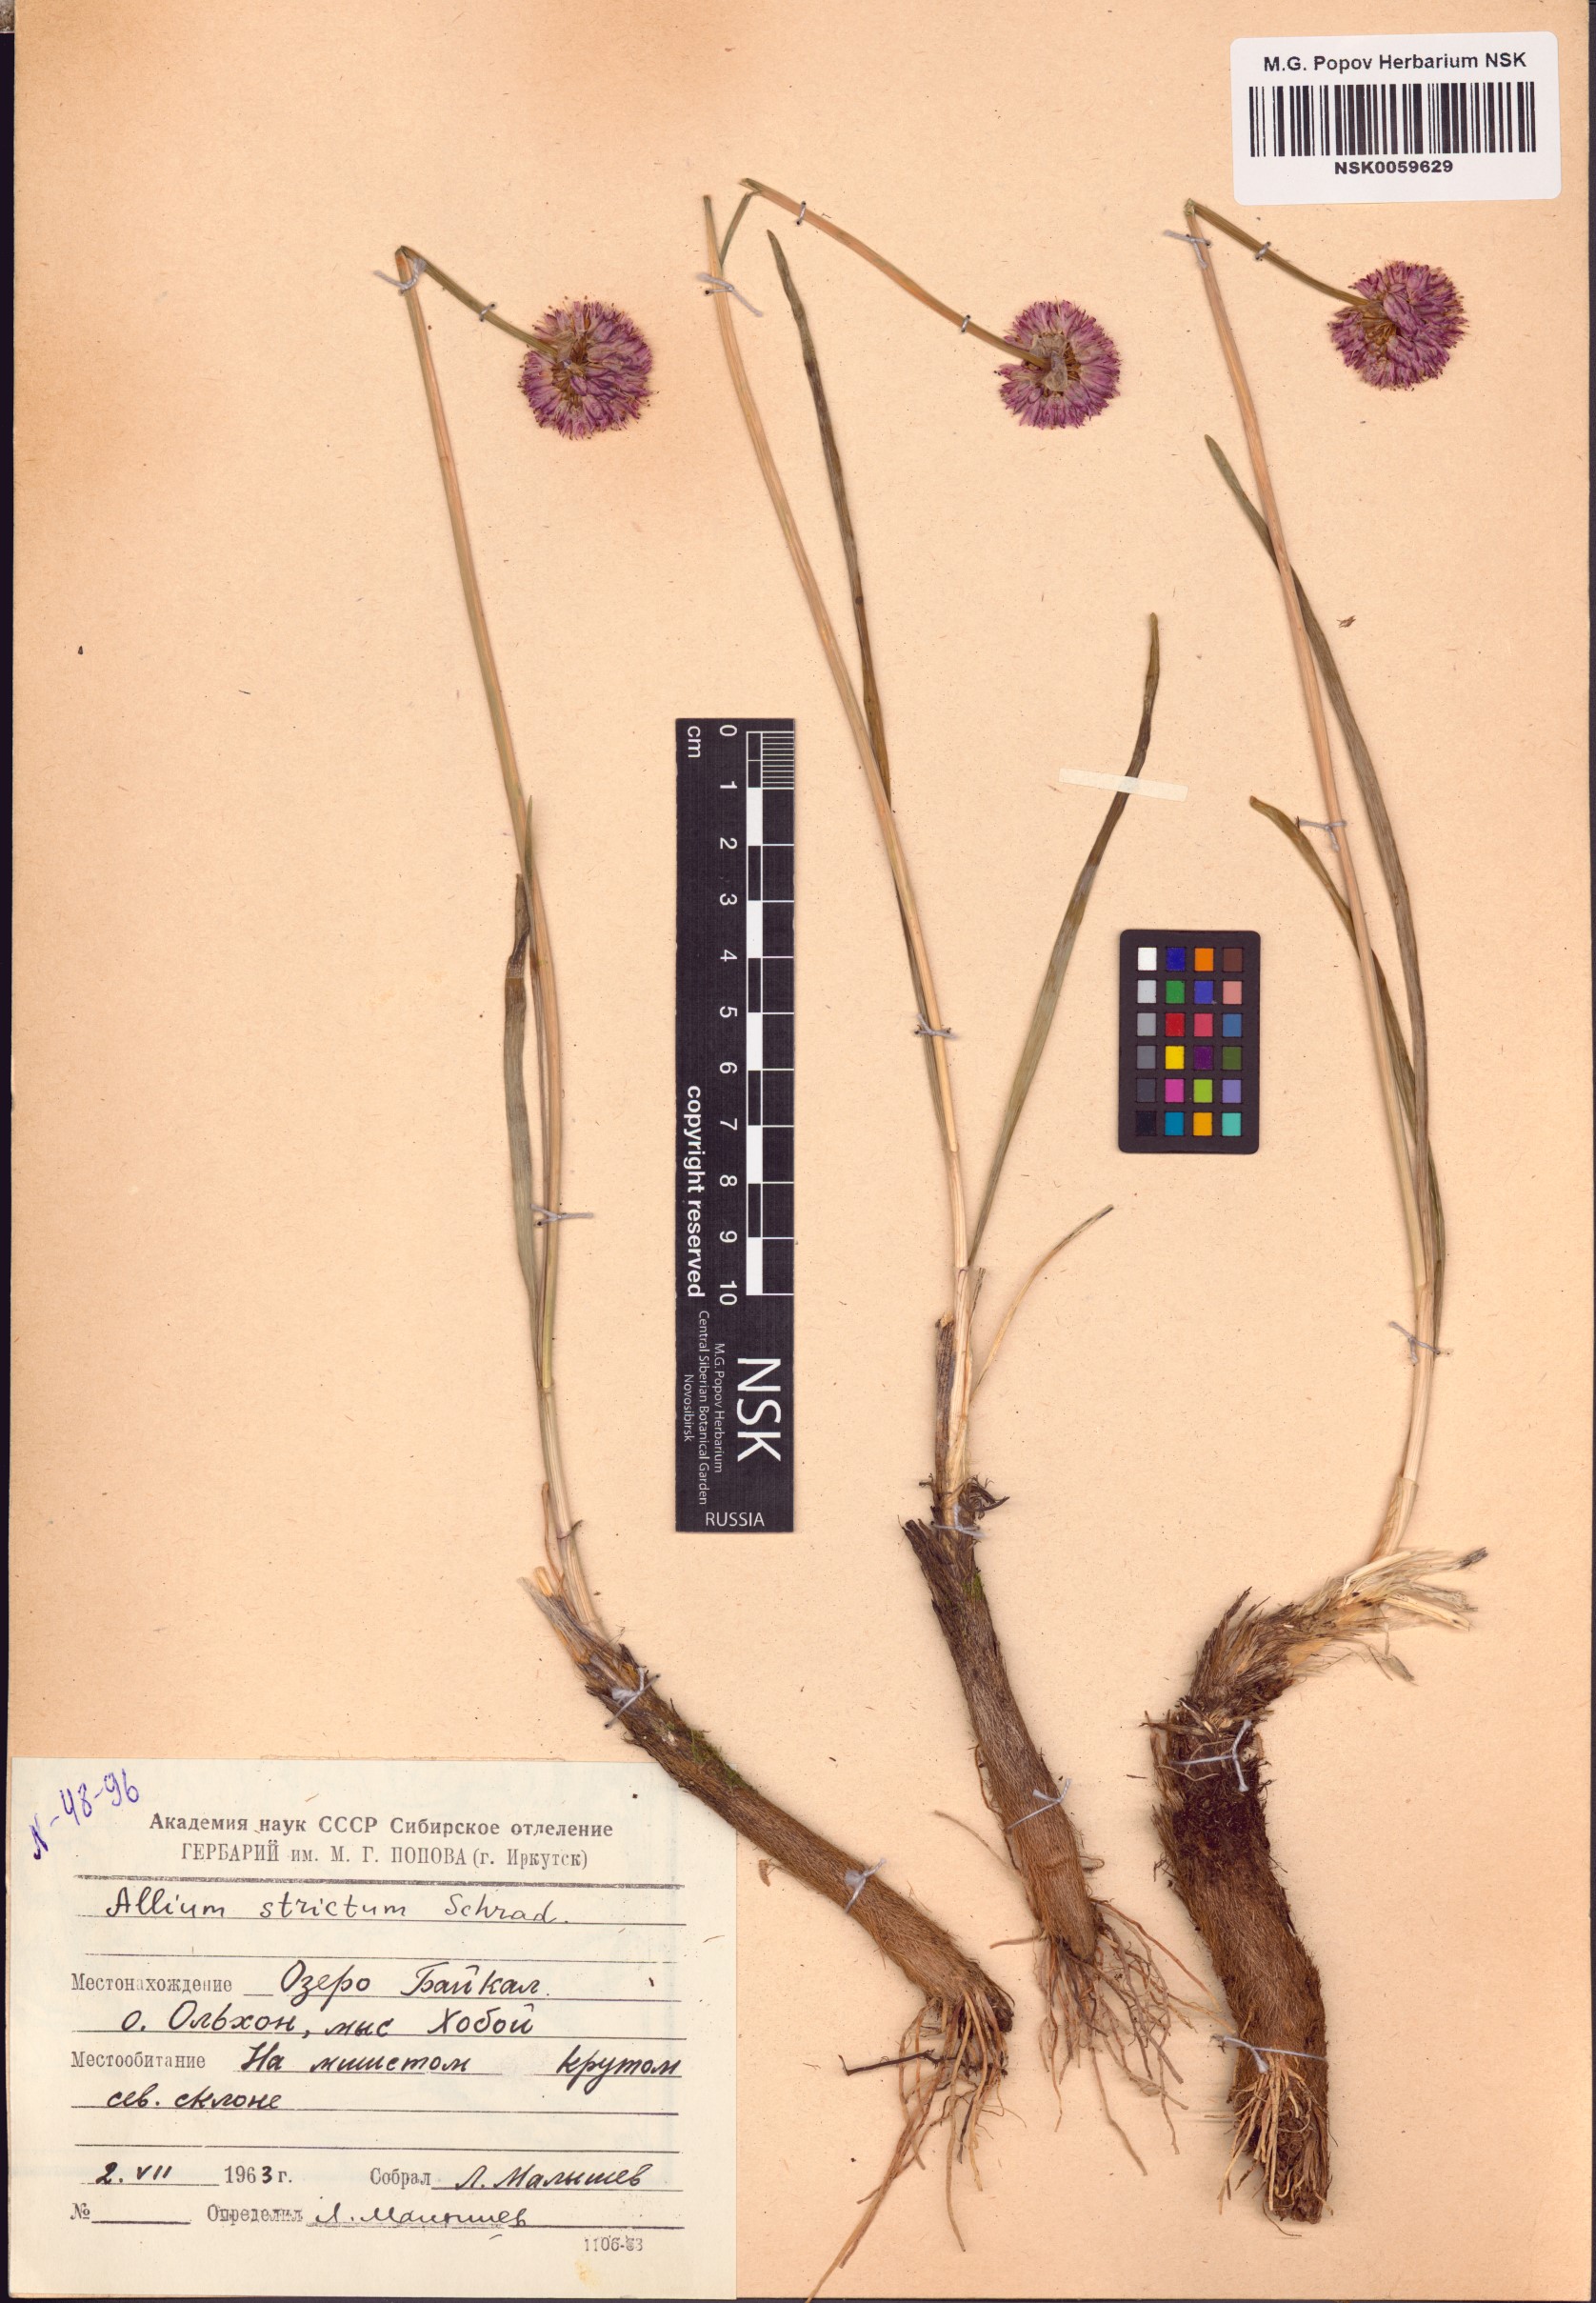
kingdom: Plantae
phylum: Tracheophyta
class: Liliopsida
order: Asparagales
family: Amaryllidaceae
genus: Allium
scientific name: Allium strictum
